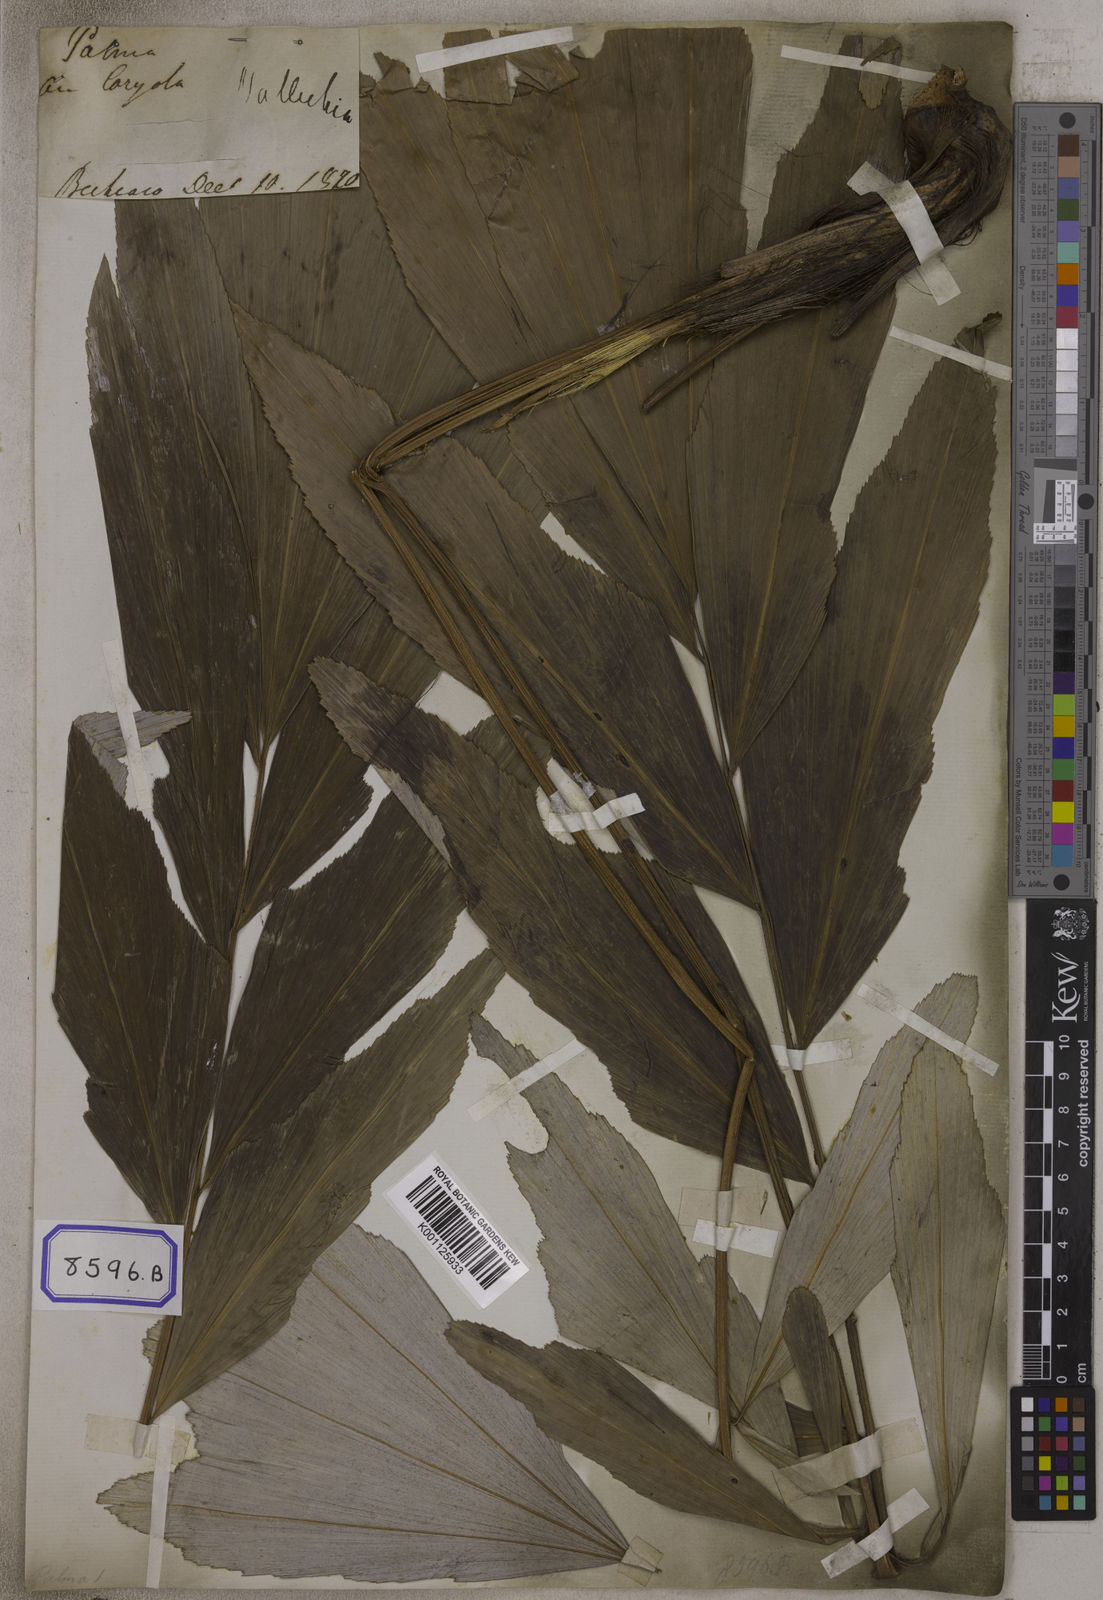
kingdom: Plantae
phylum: Tracheophyta
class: Liliopsida
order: Arecales
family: Arecaceae
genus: Wallichia
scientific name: Wallichia
